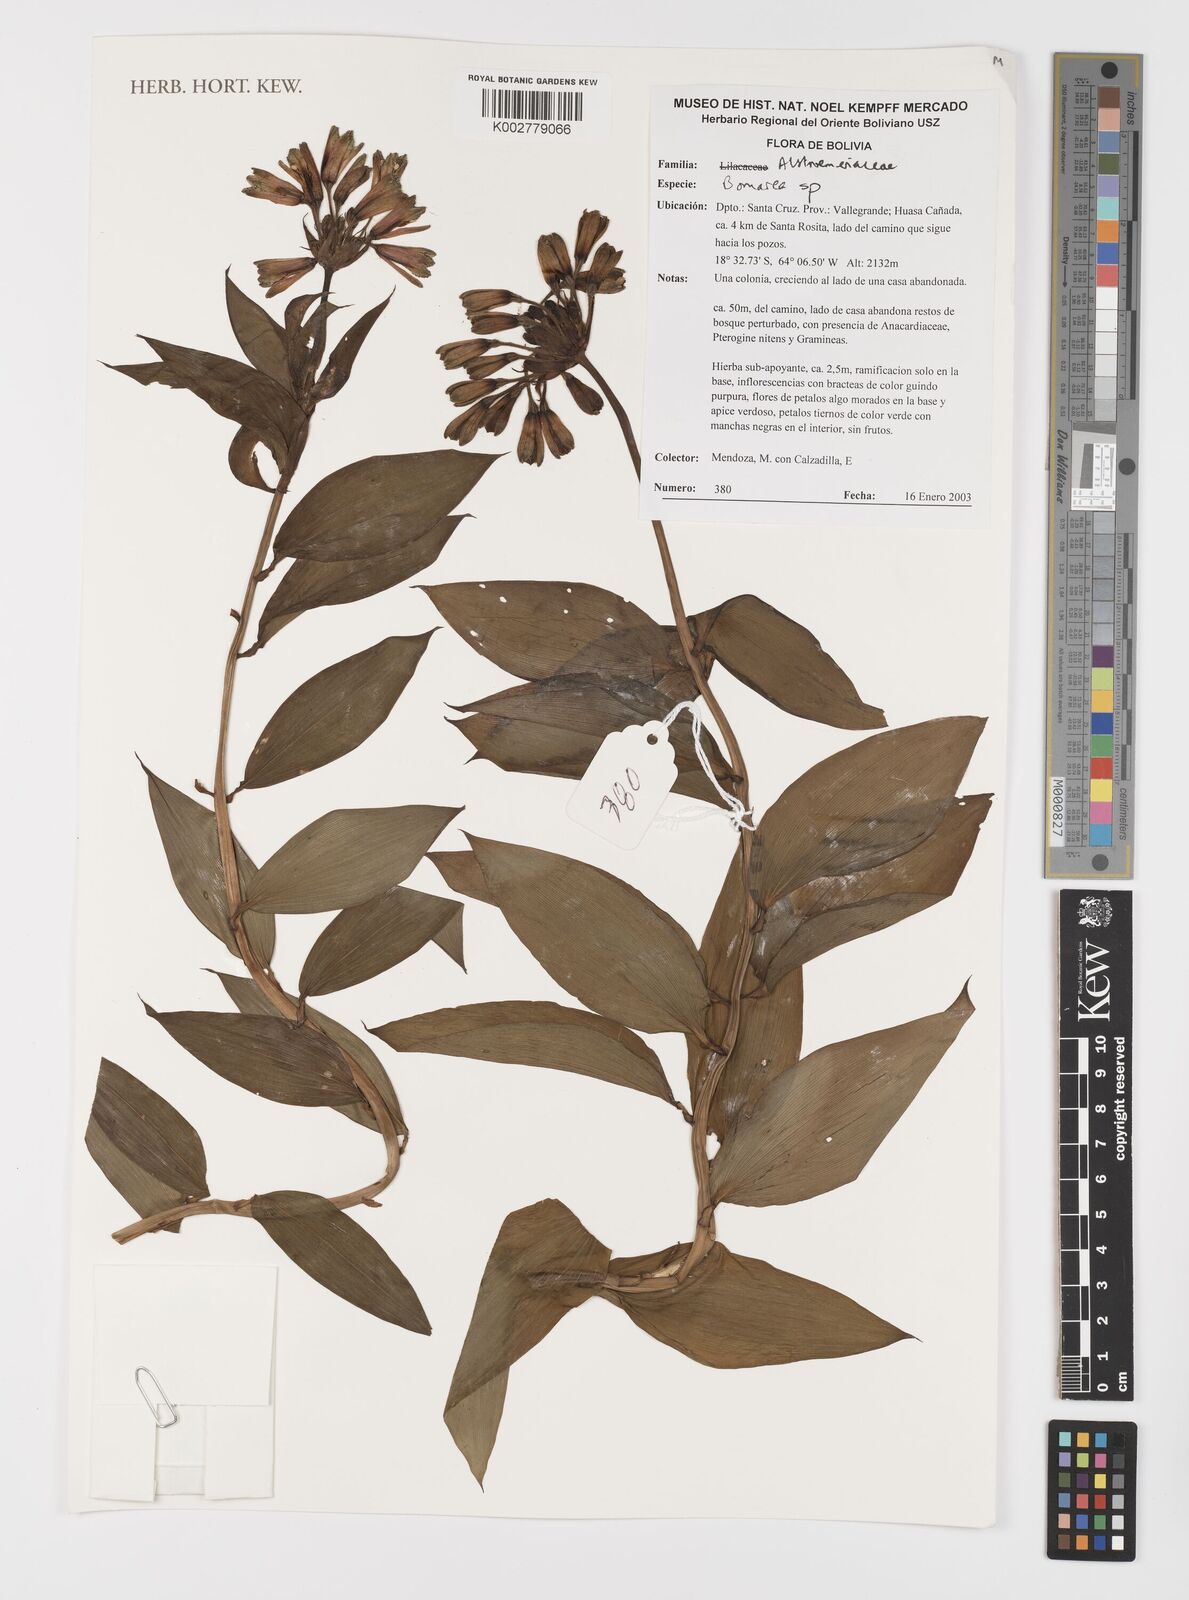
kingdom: Plantae
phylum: Tracheophyta
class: Liliopsida
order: Liliales
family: Alstroemeriaceae
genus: Bomarea
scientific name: Bomarea
